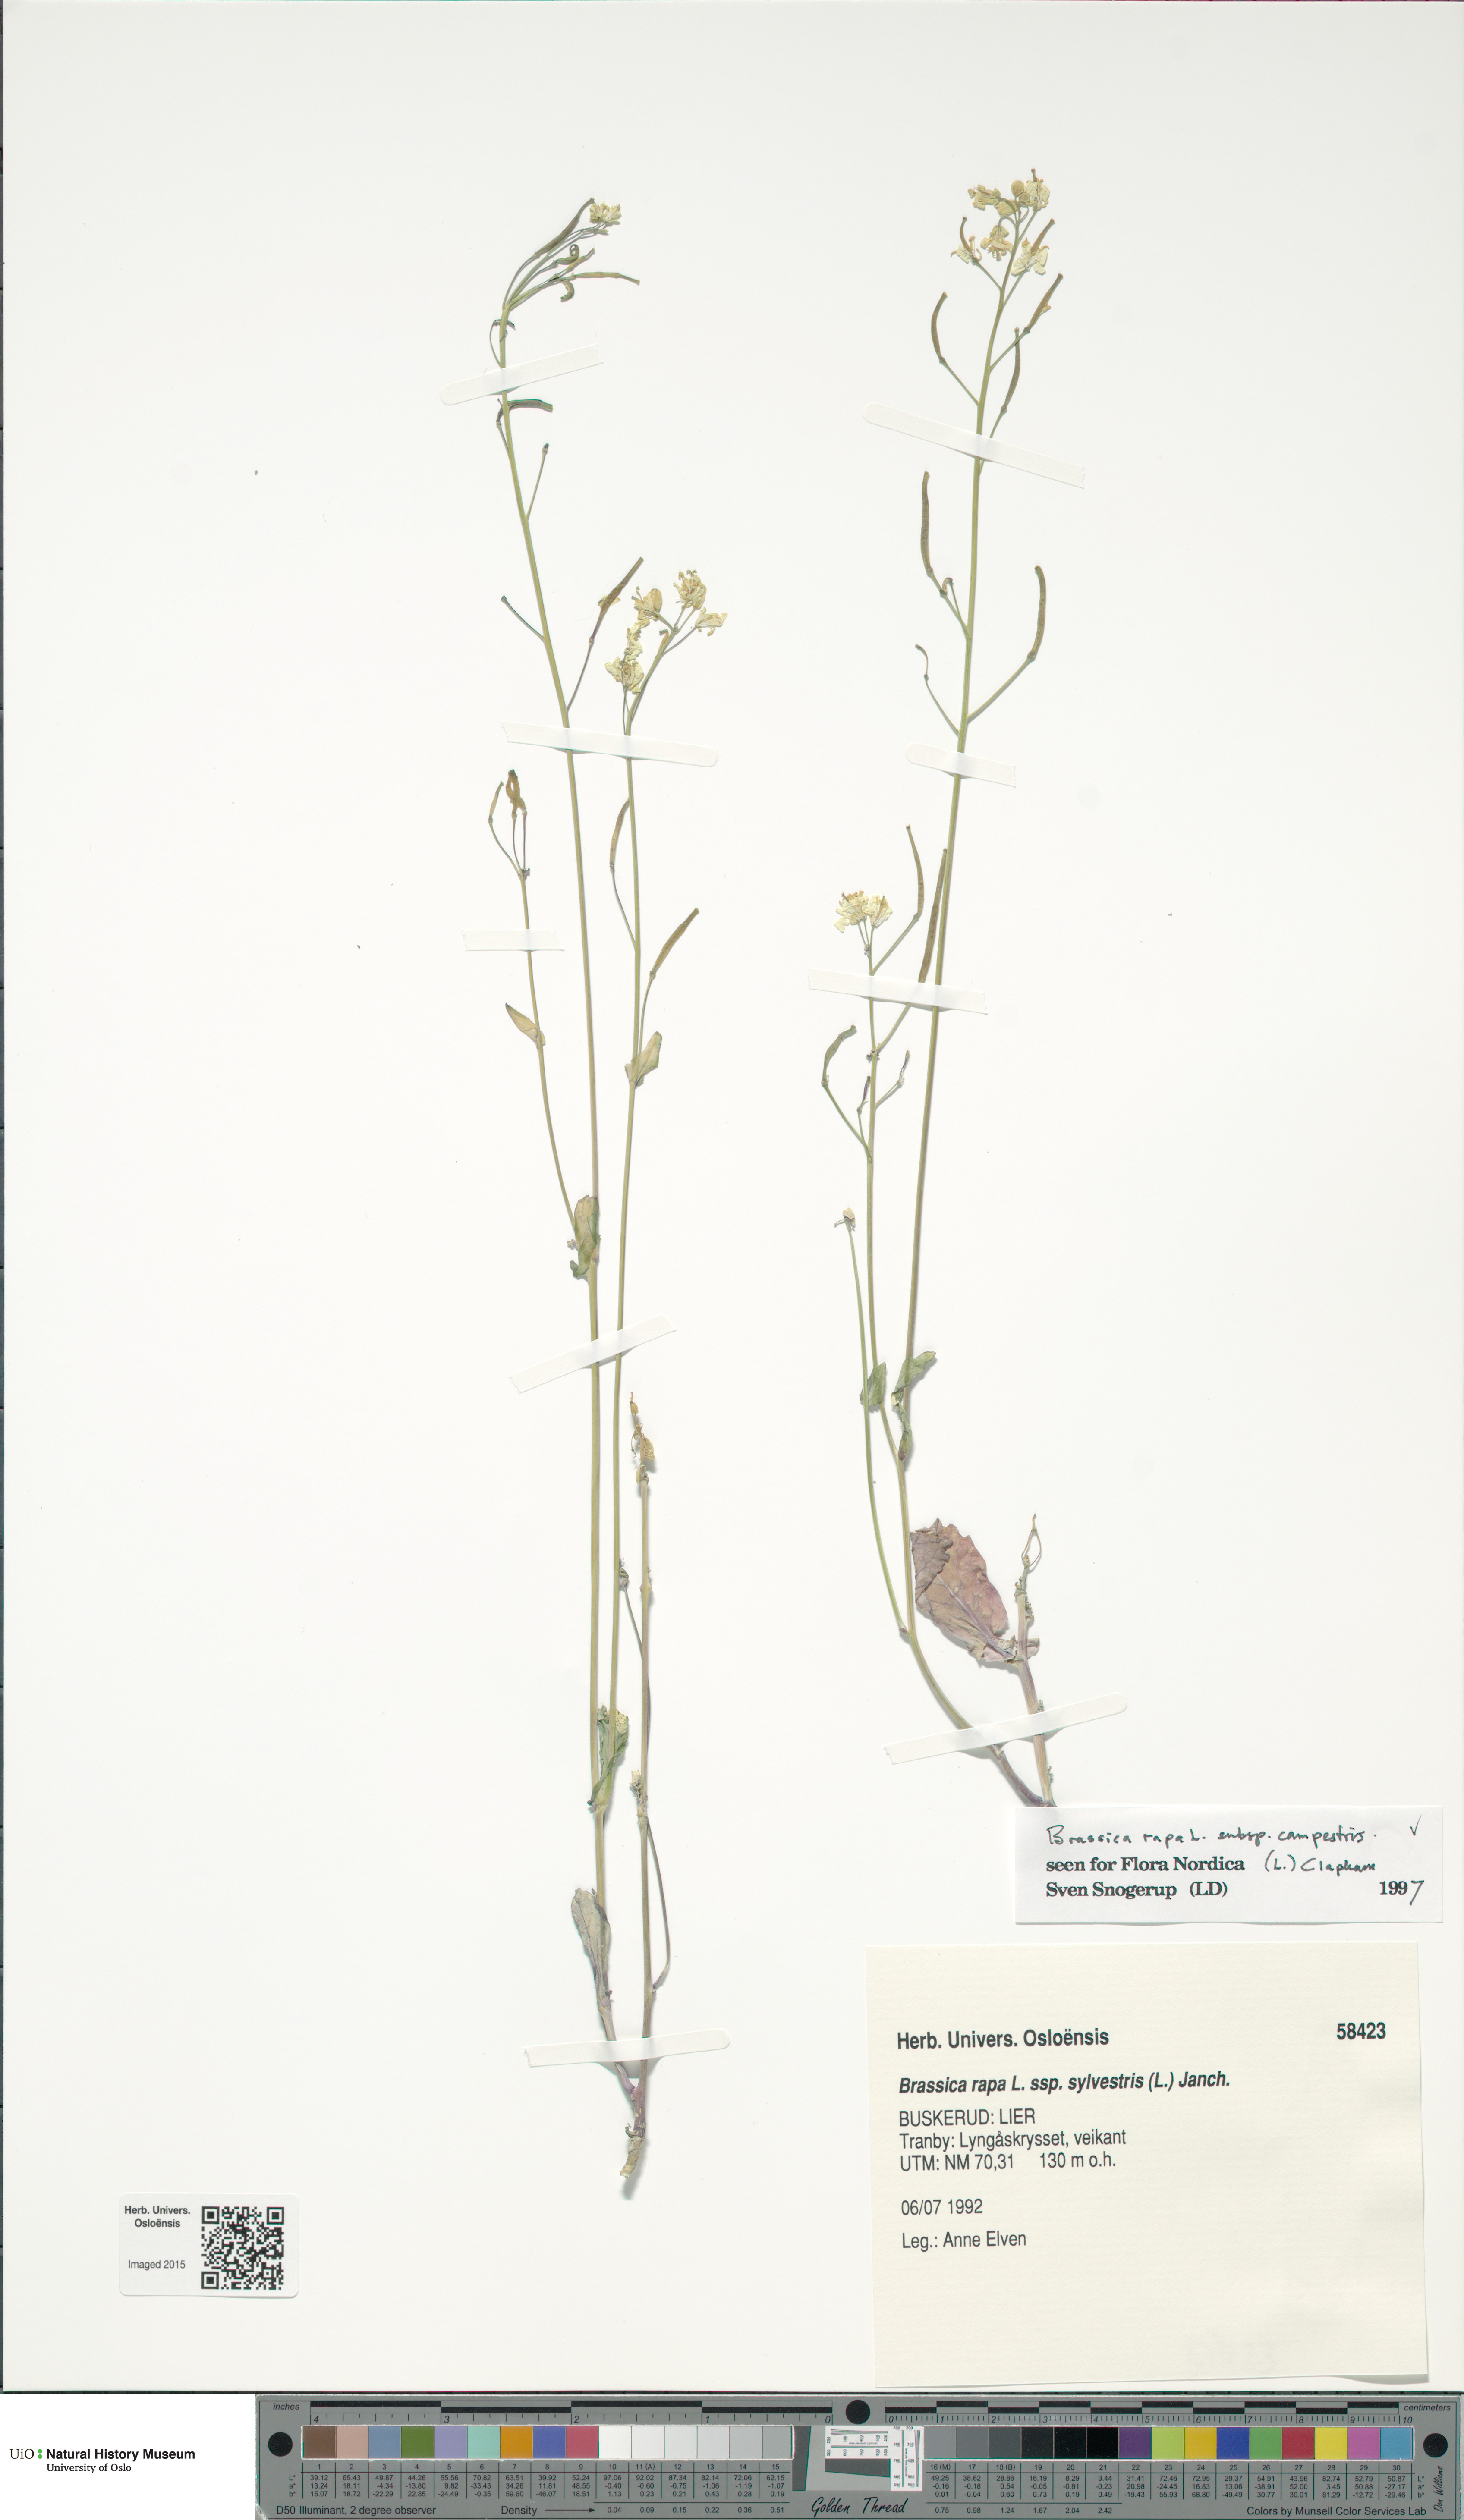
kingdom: Plantae
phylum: Tracheophyta
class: Magnoliopsida
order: Brassicales
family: Brassicaceae
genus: Brassica
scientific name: Brassica rapa
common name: Field mustard
